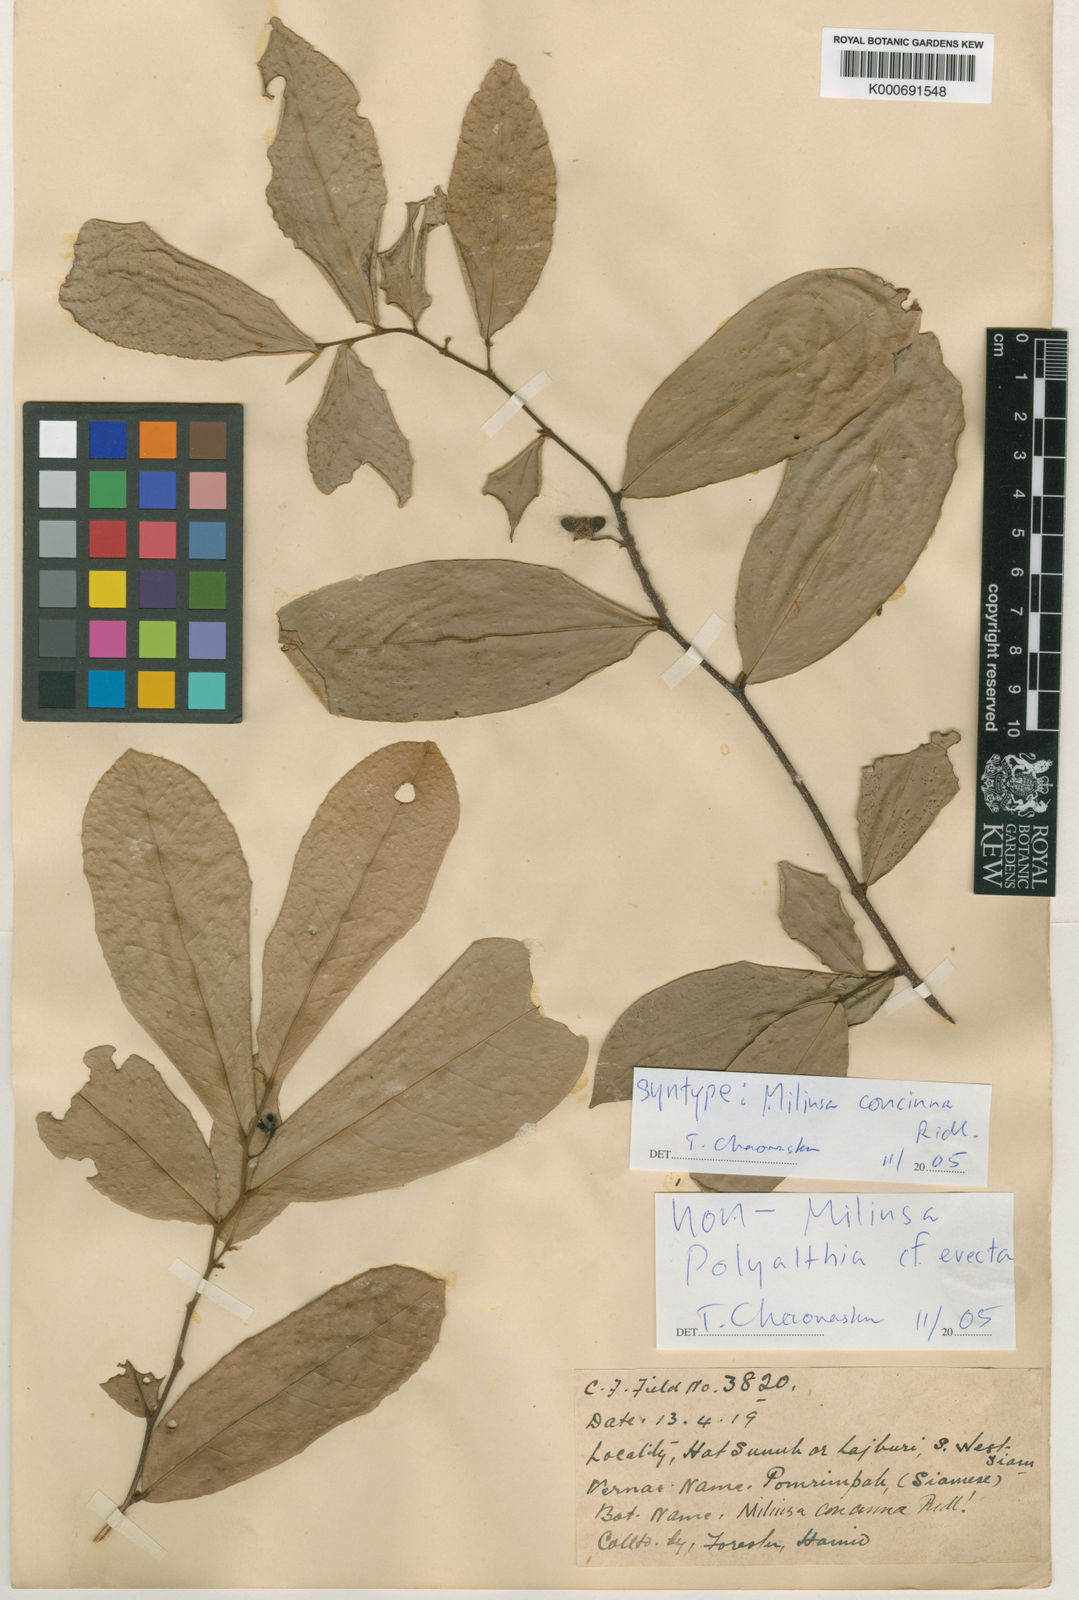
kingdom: Plantae
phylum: Tracheophyta
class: Magnoliopsida
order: Magnoliales
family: Annonaceae
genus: Polyalthia
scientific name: Polyalthia
